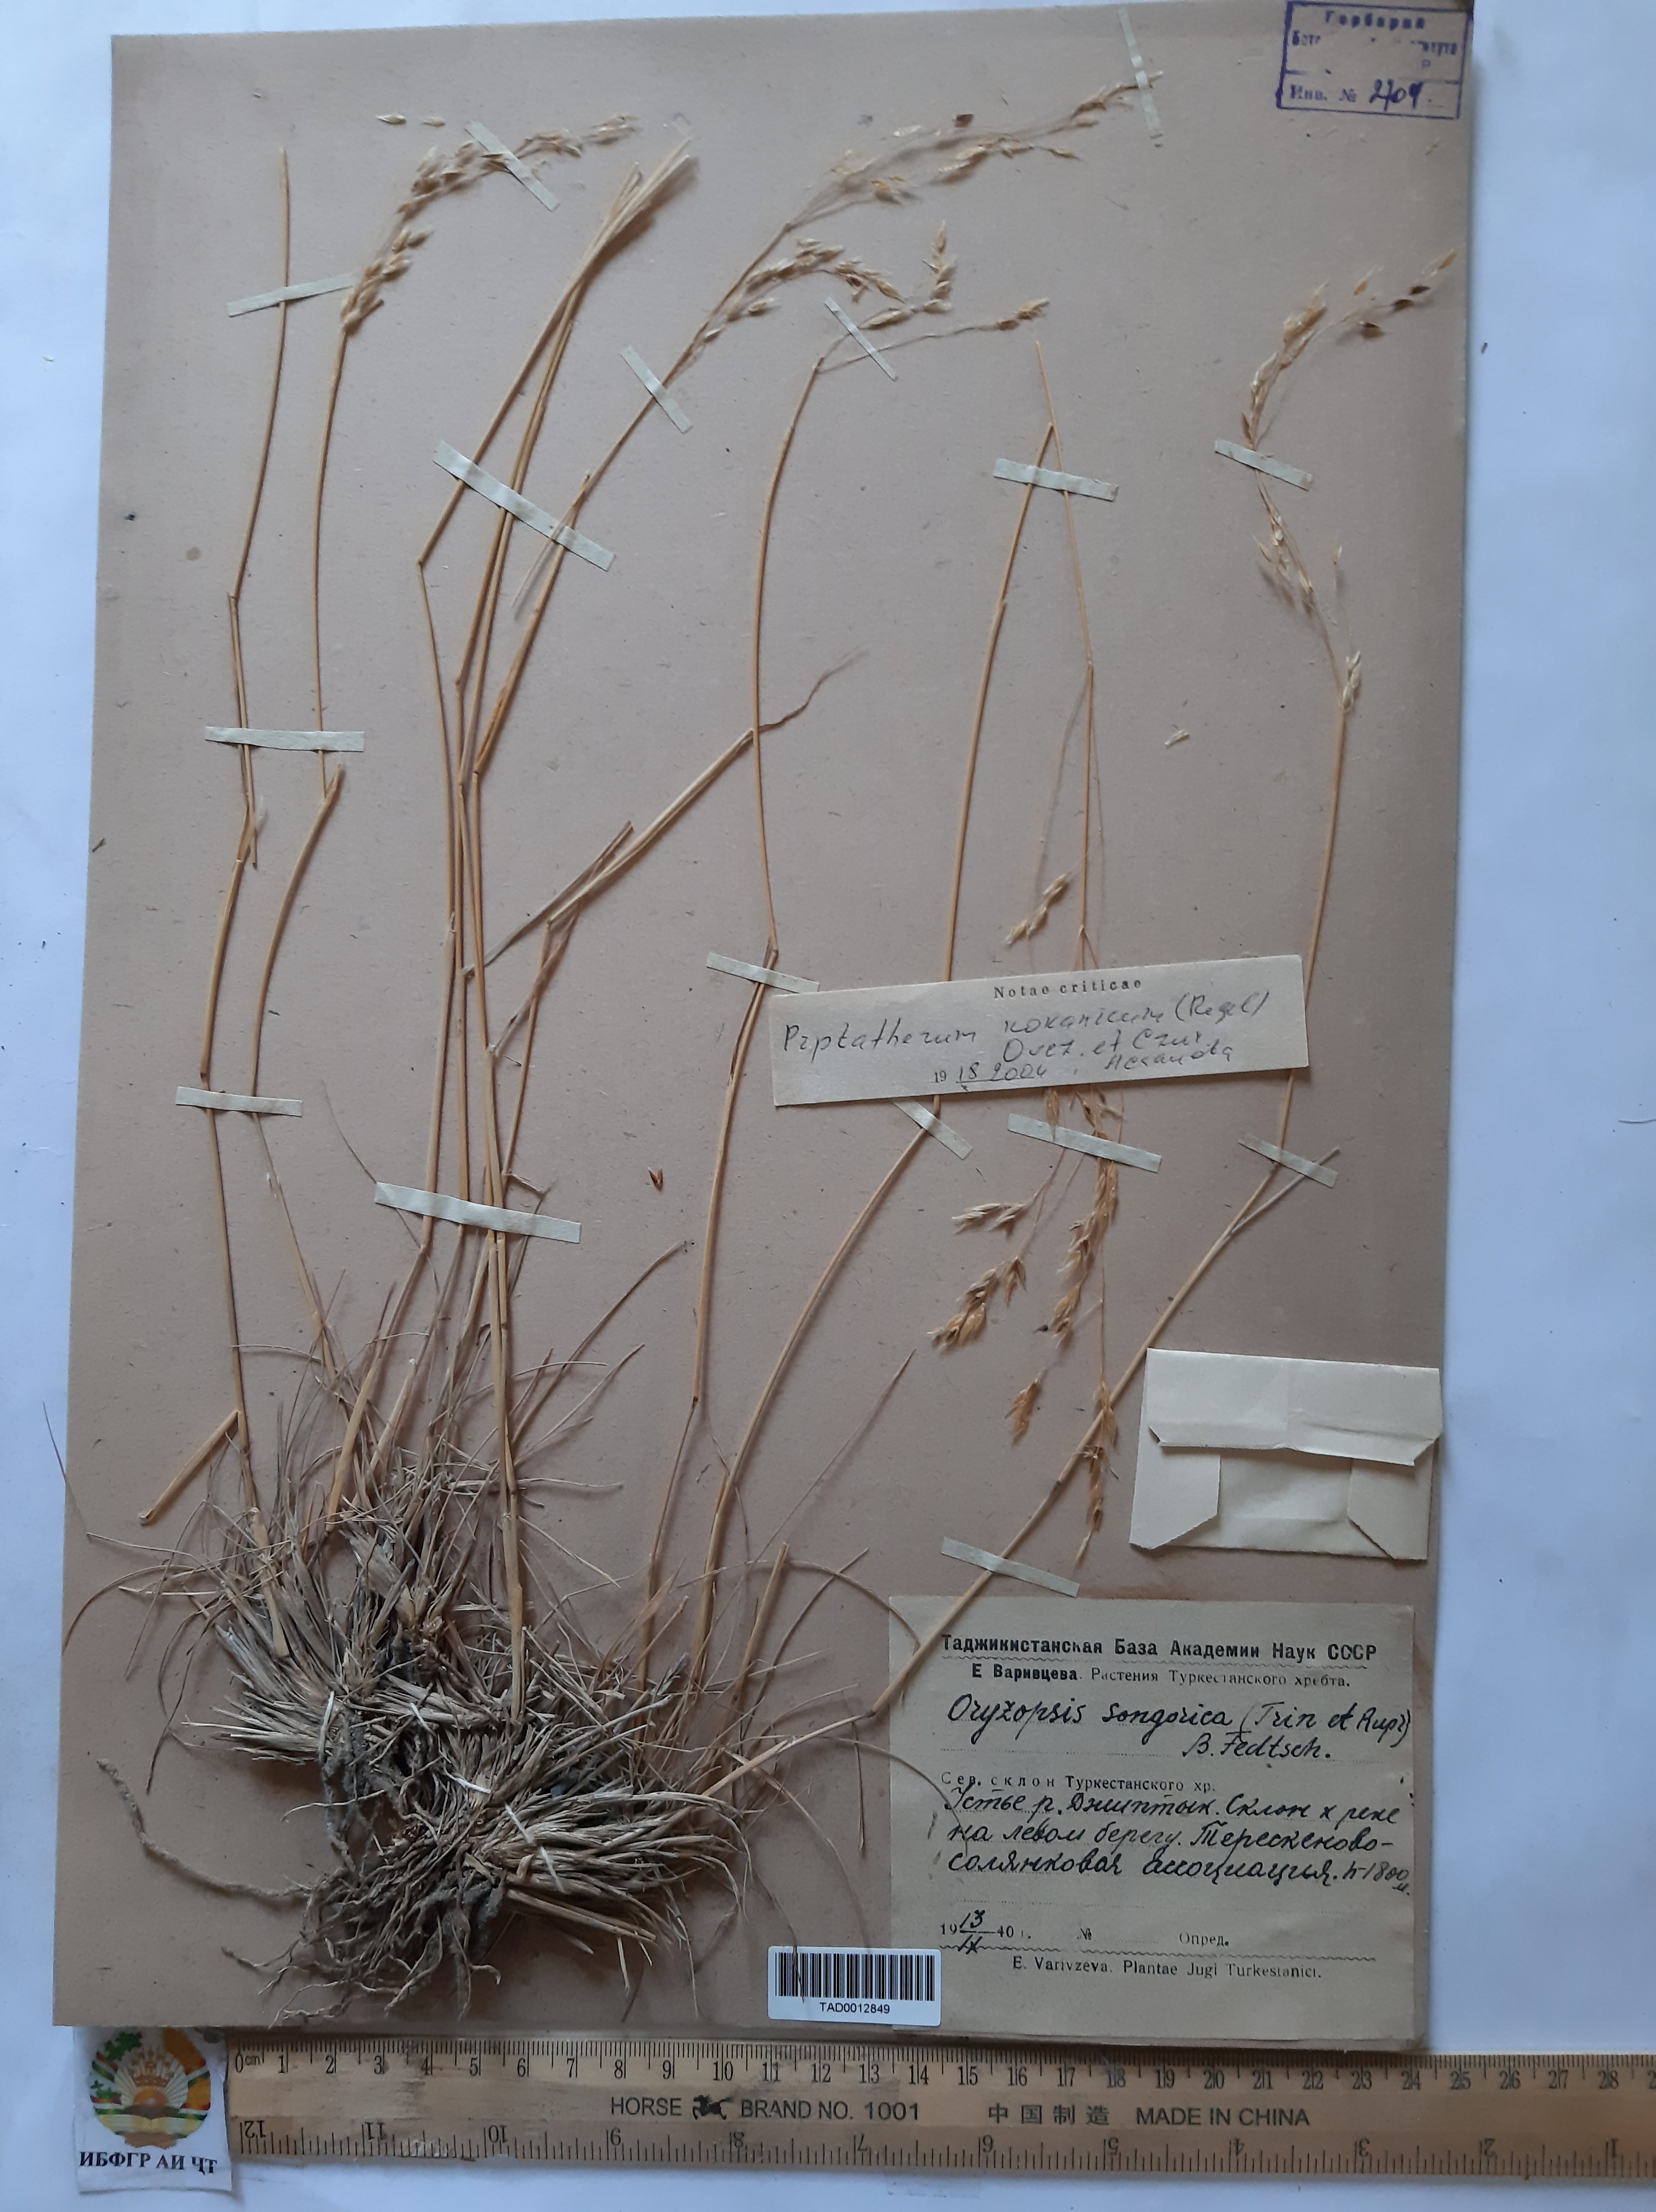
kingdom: Plantae
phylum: Tracheophyta
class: Liliopsida
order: Poales
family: Poaceae
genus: Piptatherum
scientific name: Piptatherum songaricum
